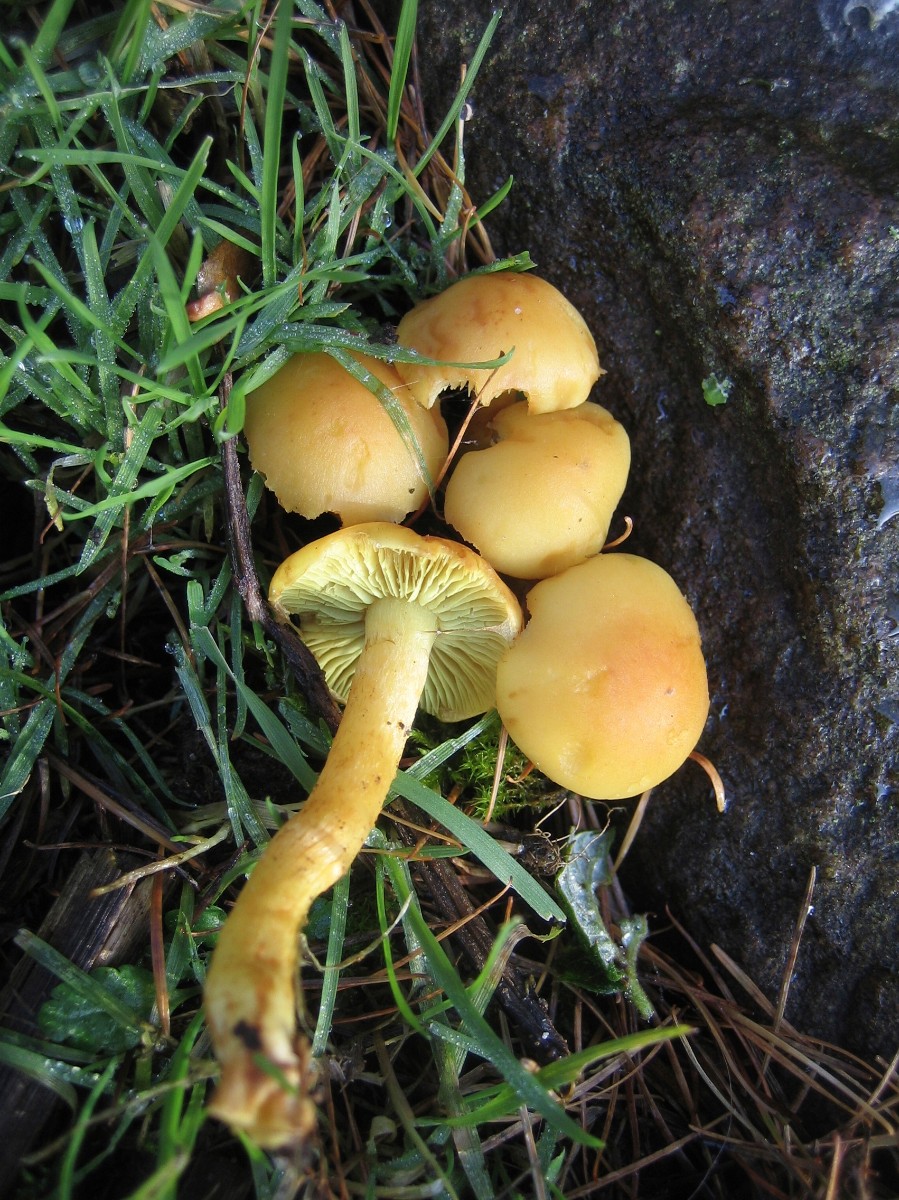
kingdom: Fungi
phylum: Basidiomycota
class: Agaricomycetes
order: Agaricales
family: Strophariaceae
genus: Hypholoma
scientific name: Hypholoma fasciculare
